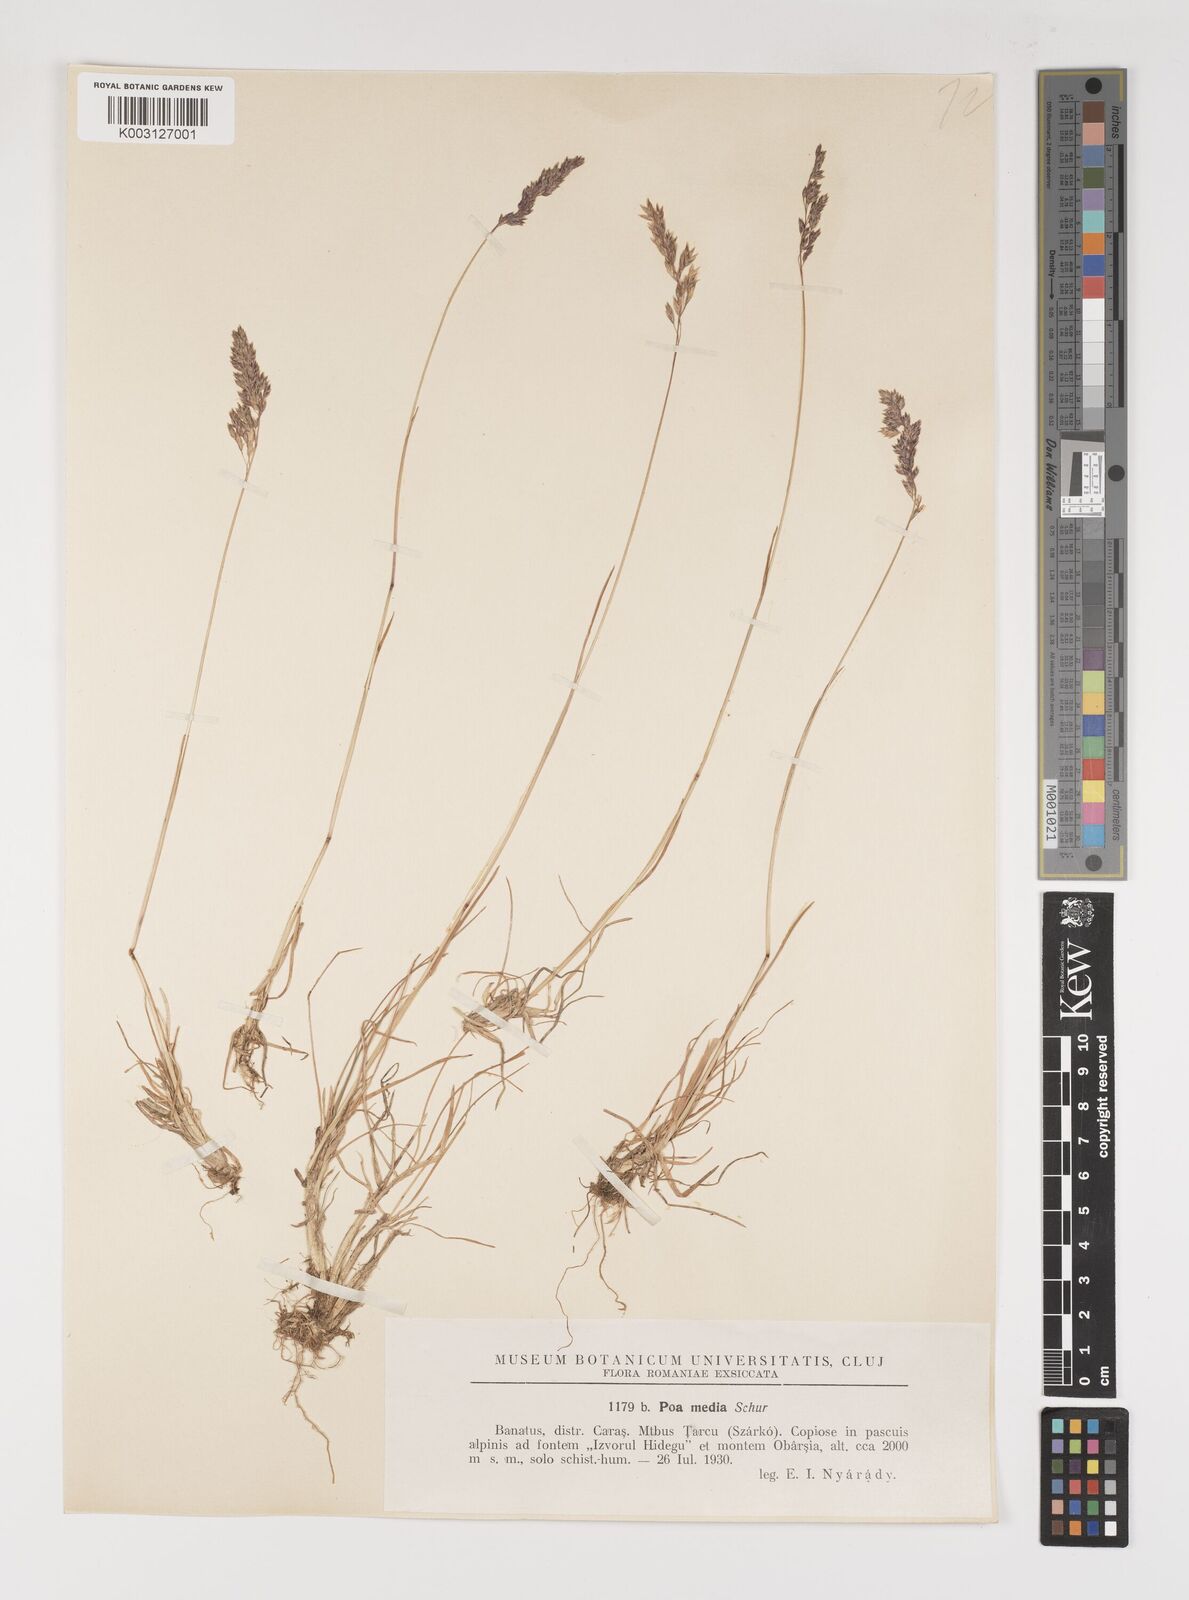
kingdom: Plantae
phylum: Tracheophyta
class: Liliopsida
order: Poales
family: Poaceae
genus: Poa
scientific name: Poa ursina
